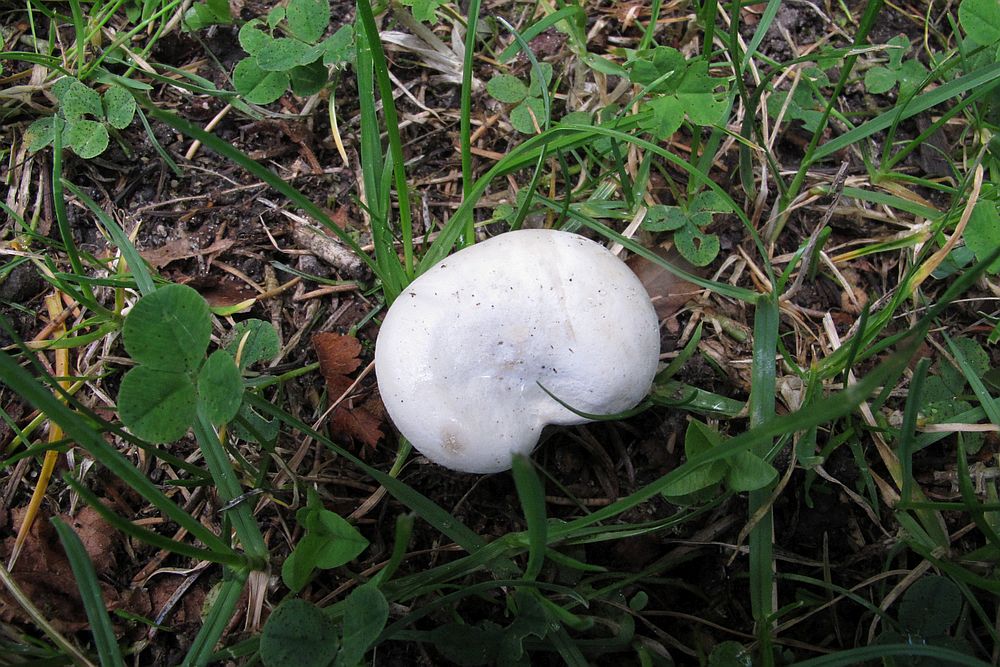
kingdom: Fungi
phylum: Basidiomycota
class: Agaricomycetes
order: Agaricales
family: Entolomataceae
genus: Clitopilus
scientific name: Clitopilus prunulus
